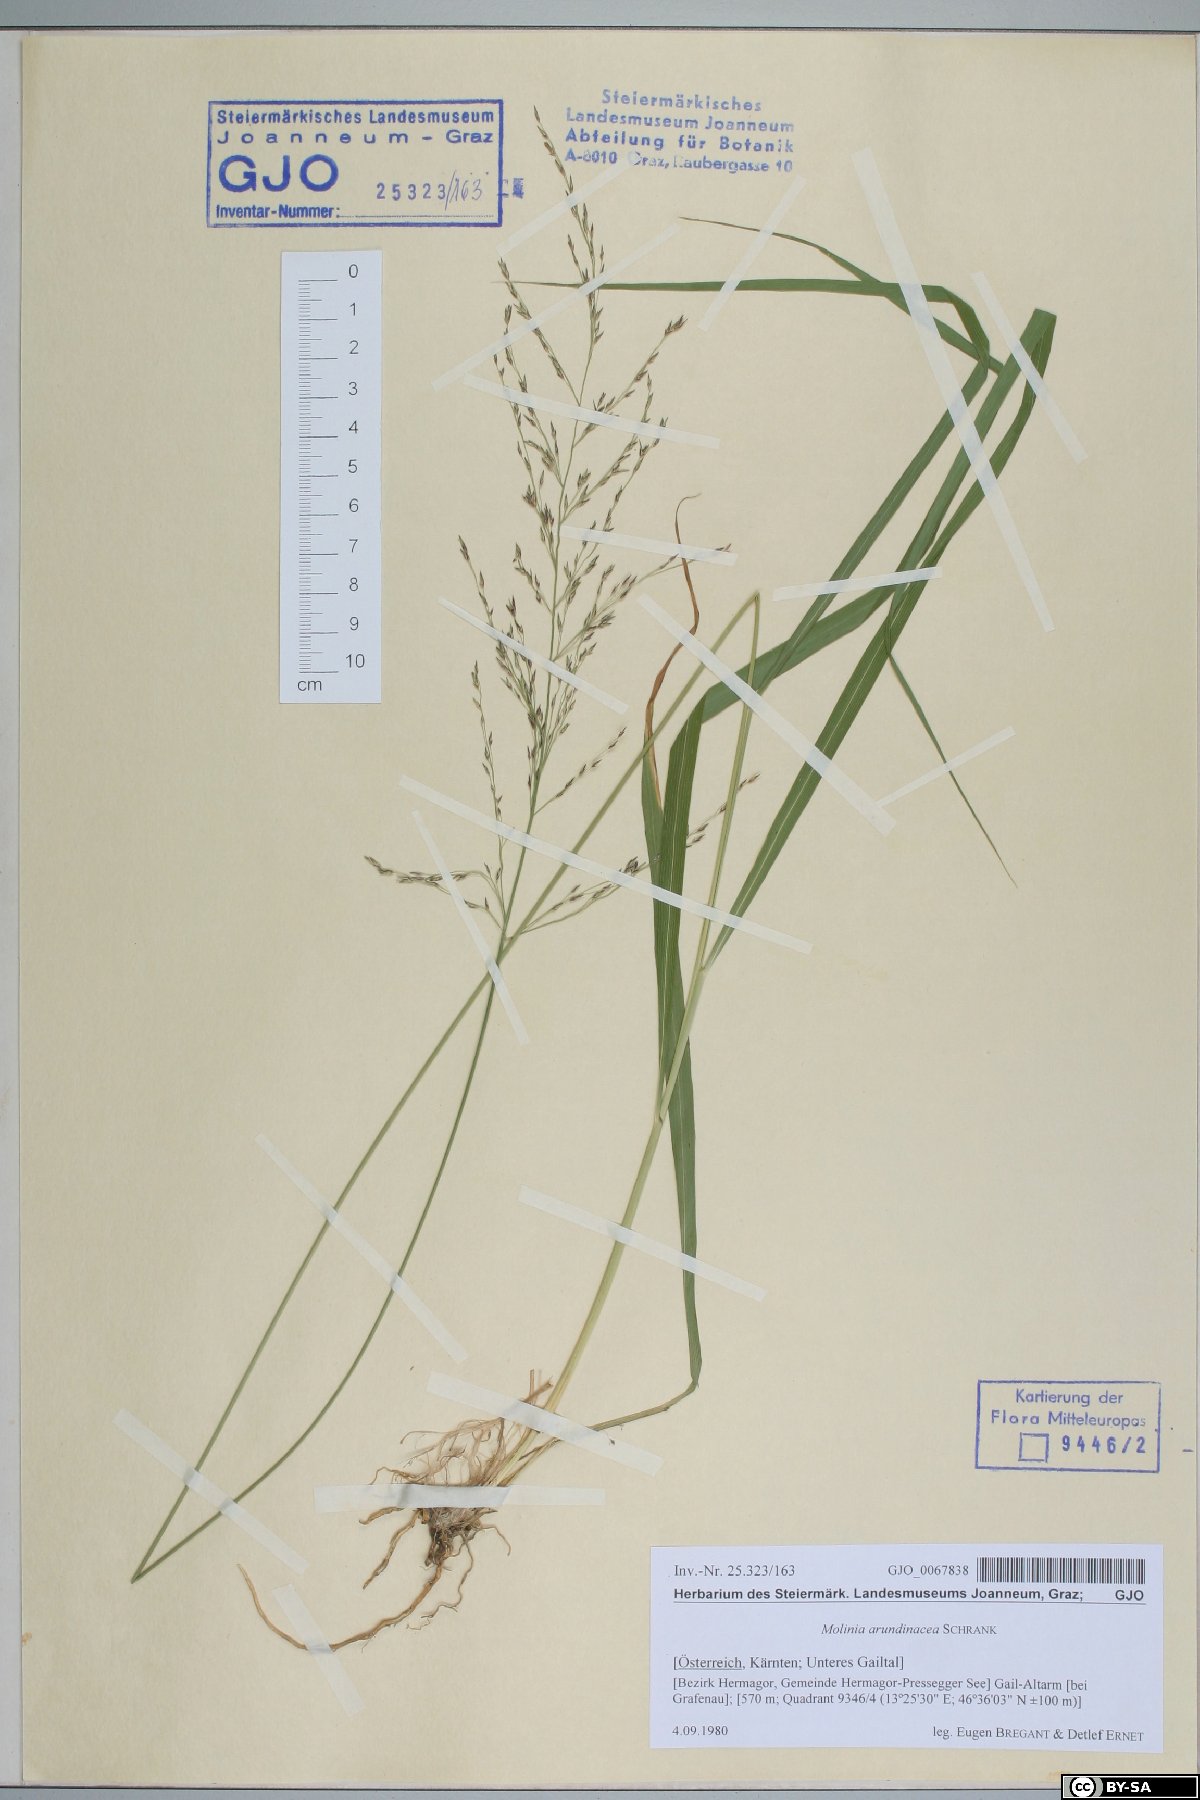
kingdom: Plantae
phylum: Tracheophyta
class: Liliopsida
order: Poales
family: Poaceae
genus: Molinia
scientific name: Molinia arundinacea
